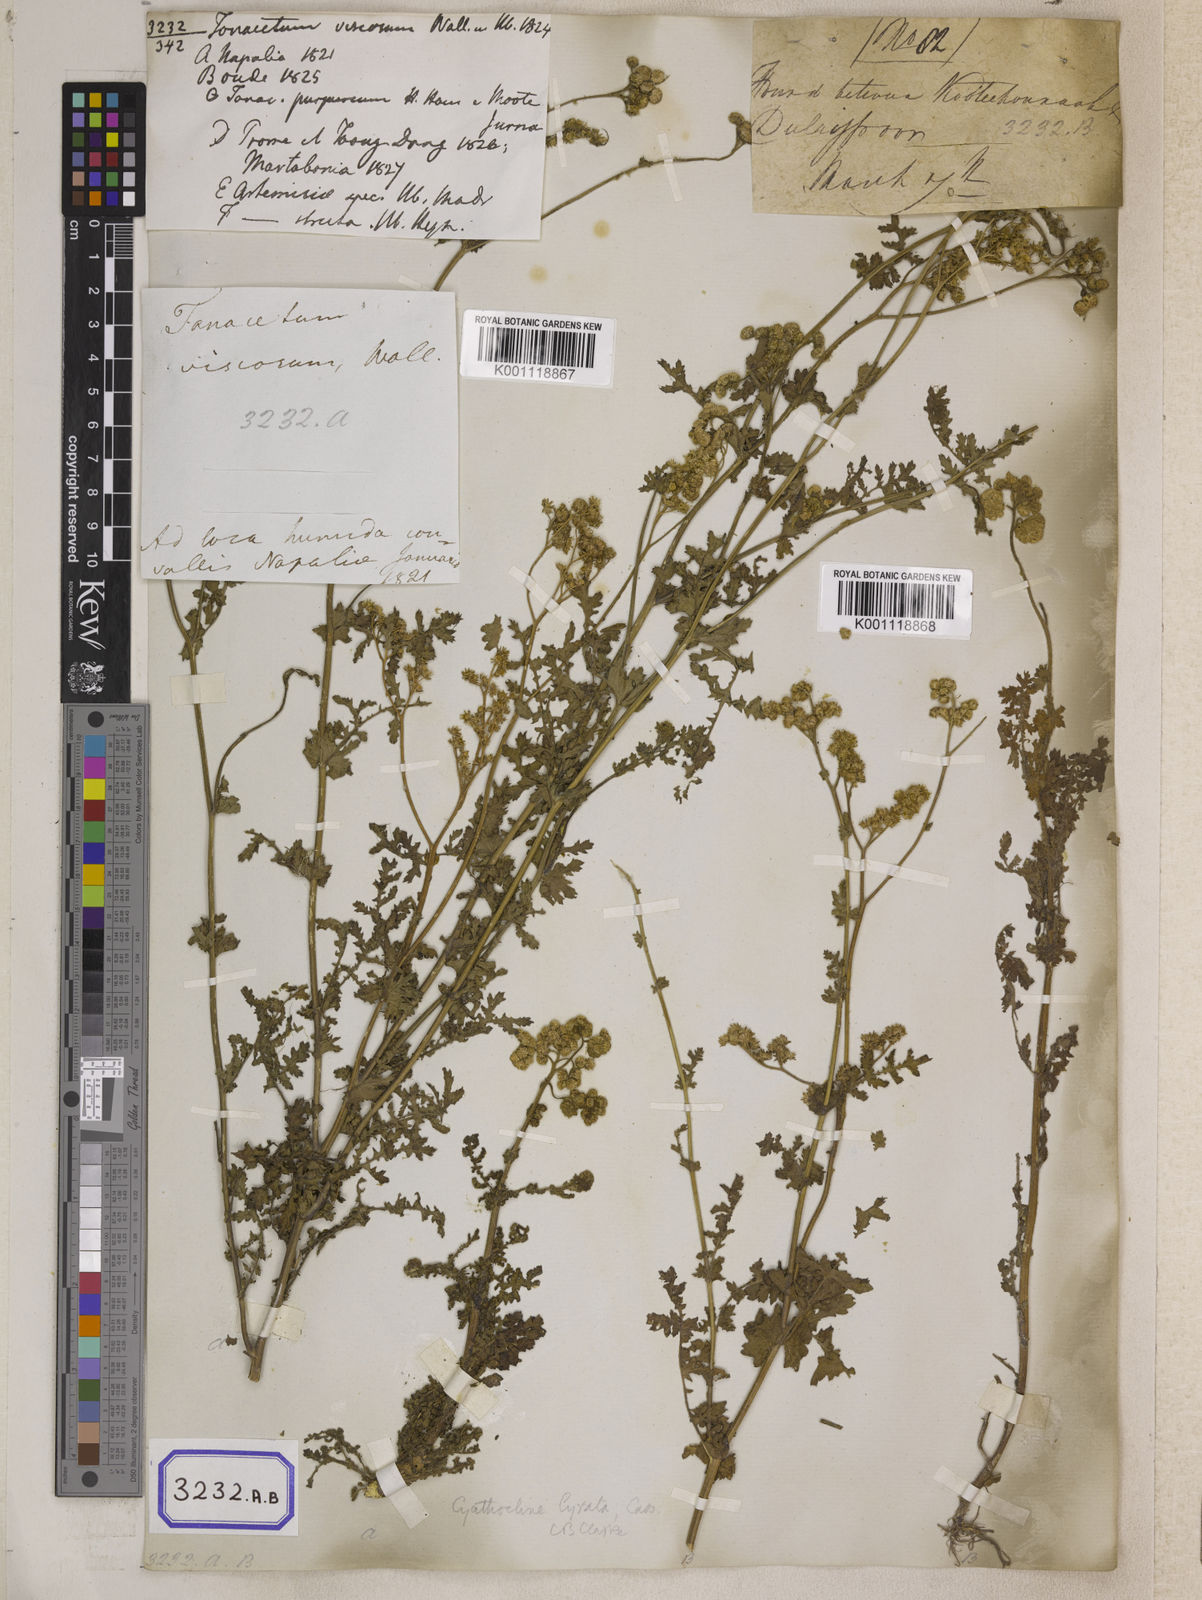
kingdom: Plantae
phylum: Tracheophyta
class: Magnoliopsida
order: Asterales
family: Asteraceae
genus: Cyathocline
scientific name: Cyathocline purpurea
